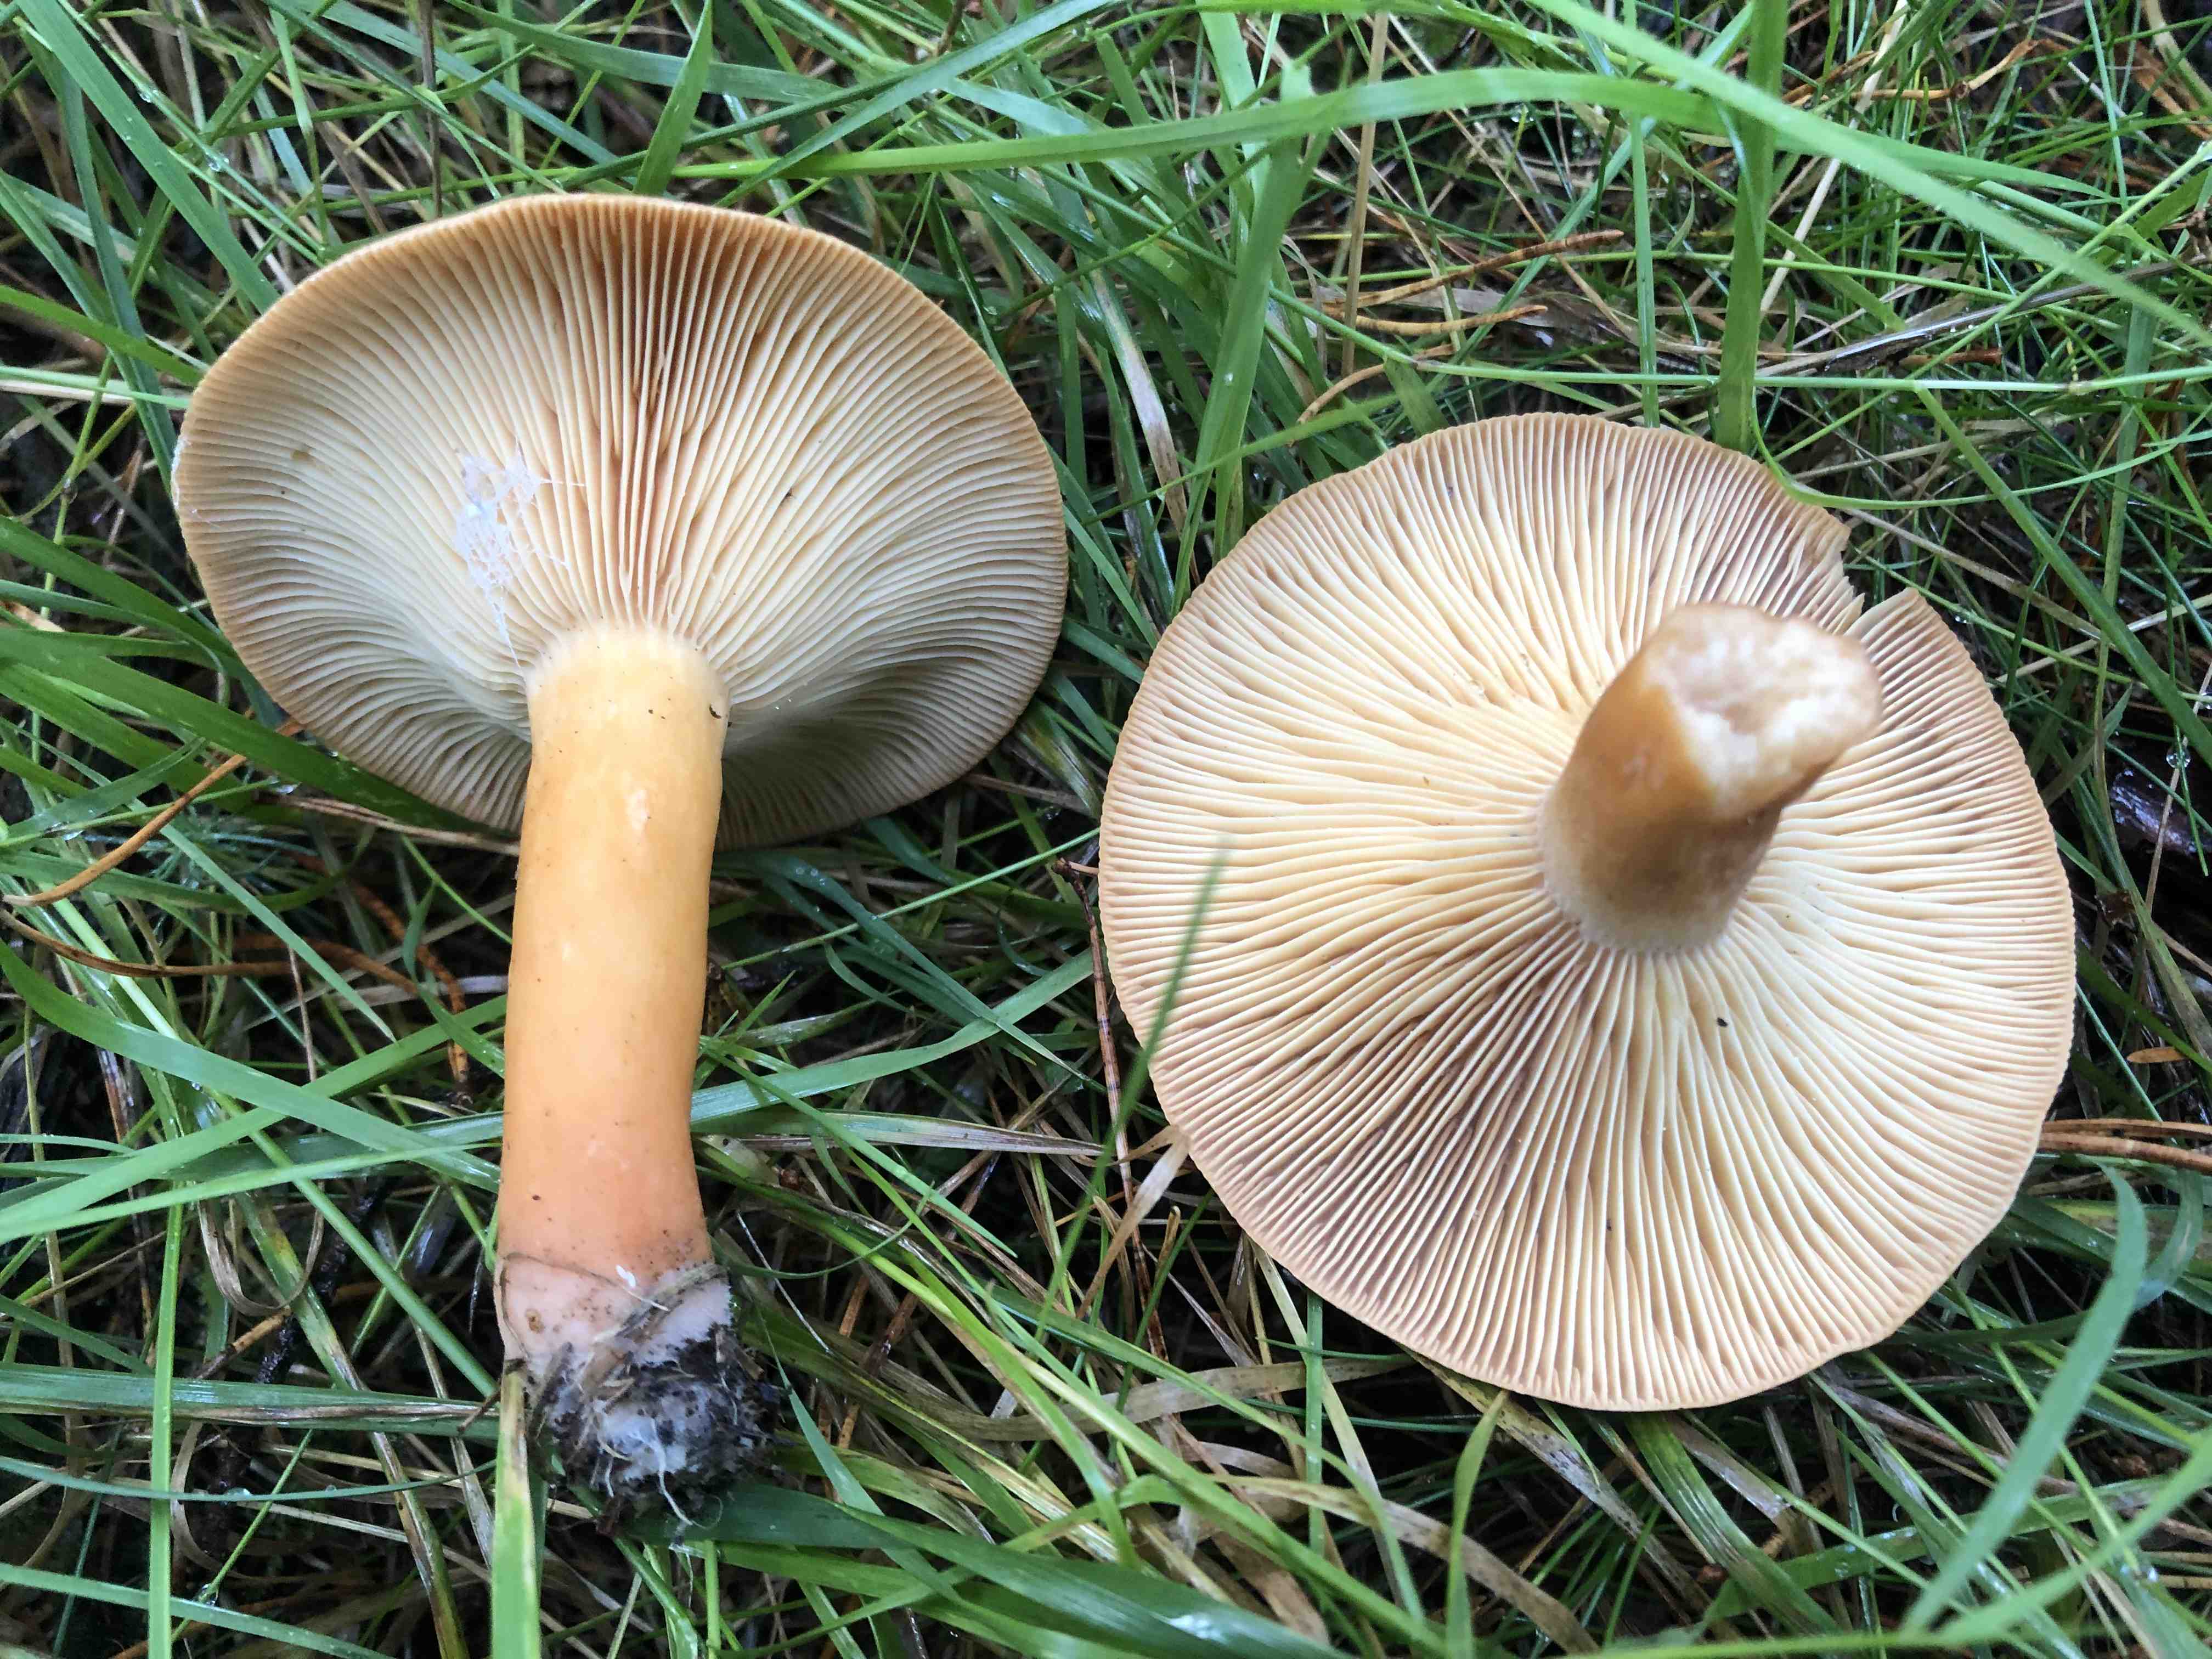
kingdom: Fungi
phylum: Basidiomycota
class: Agaricomycetes
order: Russulales
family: Russulaceae
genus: Lactarius
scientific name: Lactarius helvus
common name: mose-mælkehat
